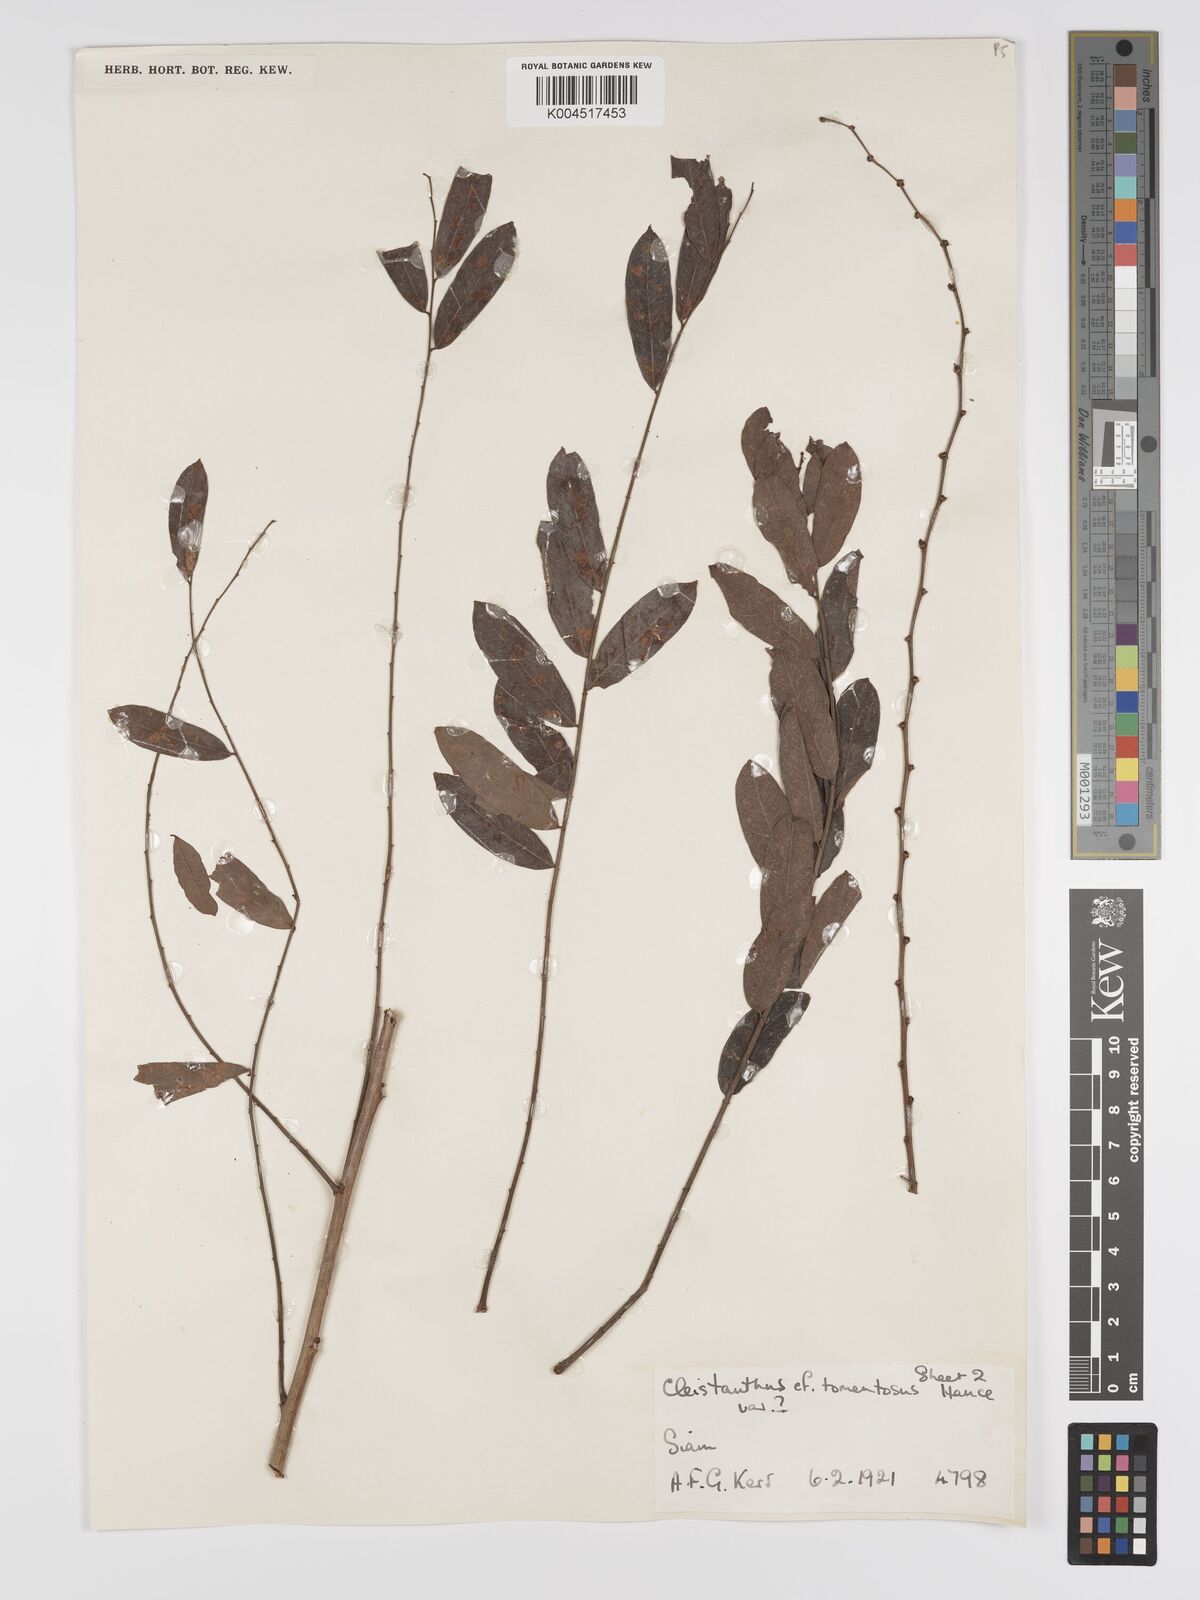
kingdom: Plantae
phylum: Tracheophyta
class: Magnoliopsida
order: Malpighiales
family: Phyllanthaceae
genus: Phyllanthus
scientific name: Phyllanthus
